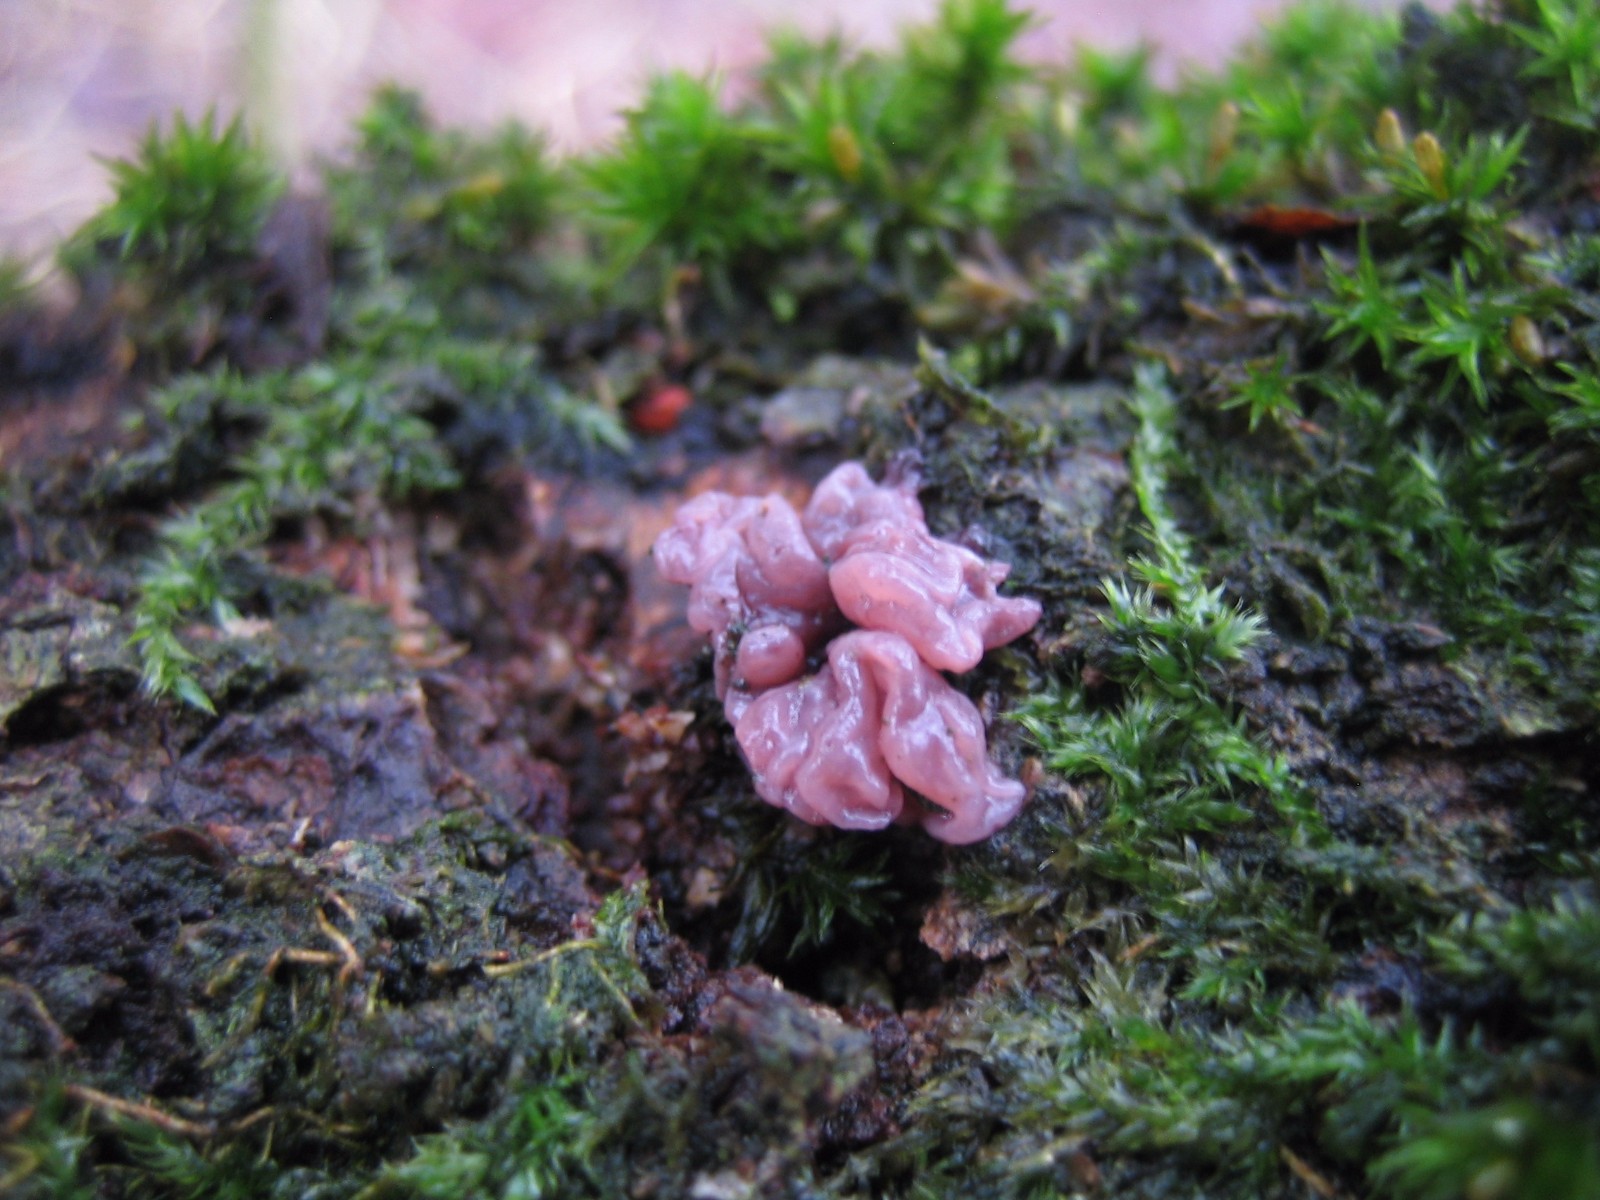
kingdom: Fungi
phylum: Ascomycota
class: Leotiomycetes
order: Helotiales
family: Gelatinodiscaceae
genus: Ascocoryne
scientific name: Ascocoryne sarcoides
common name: rødlilla sejskive
